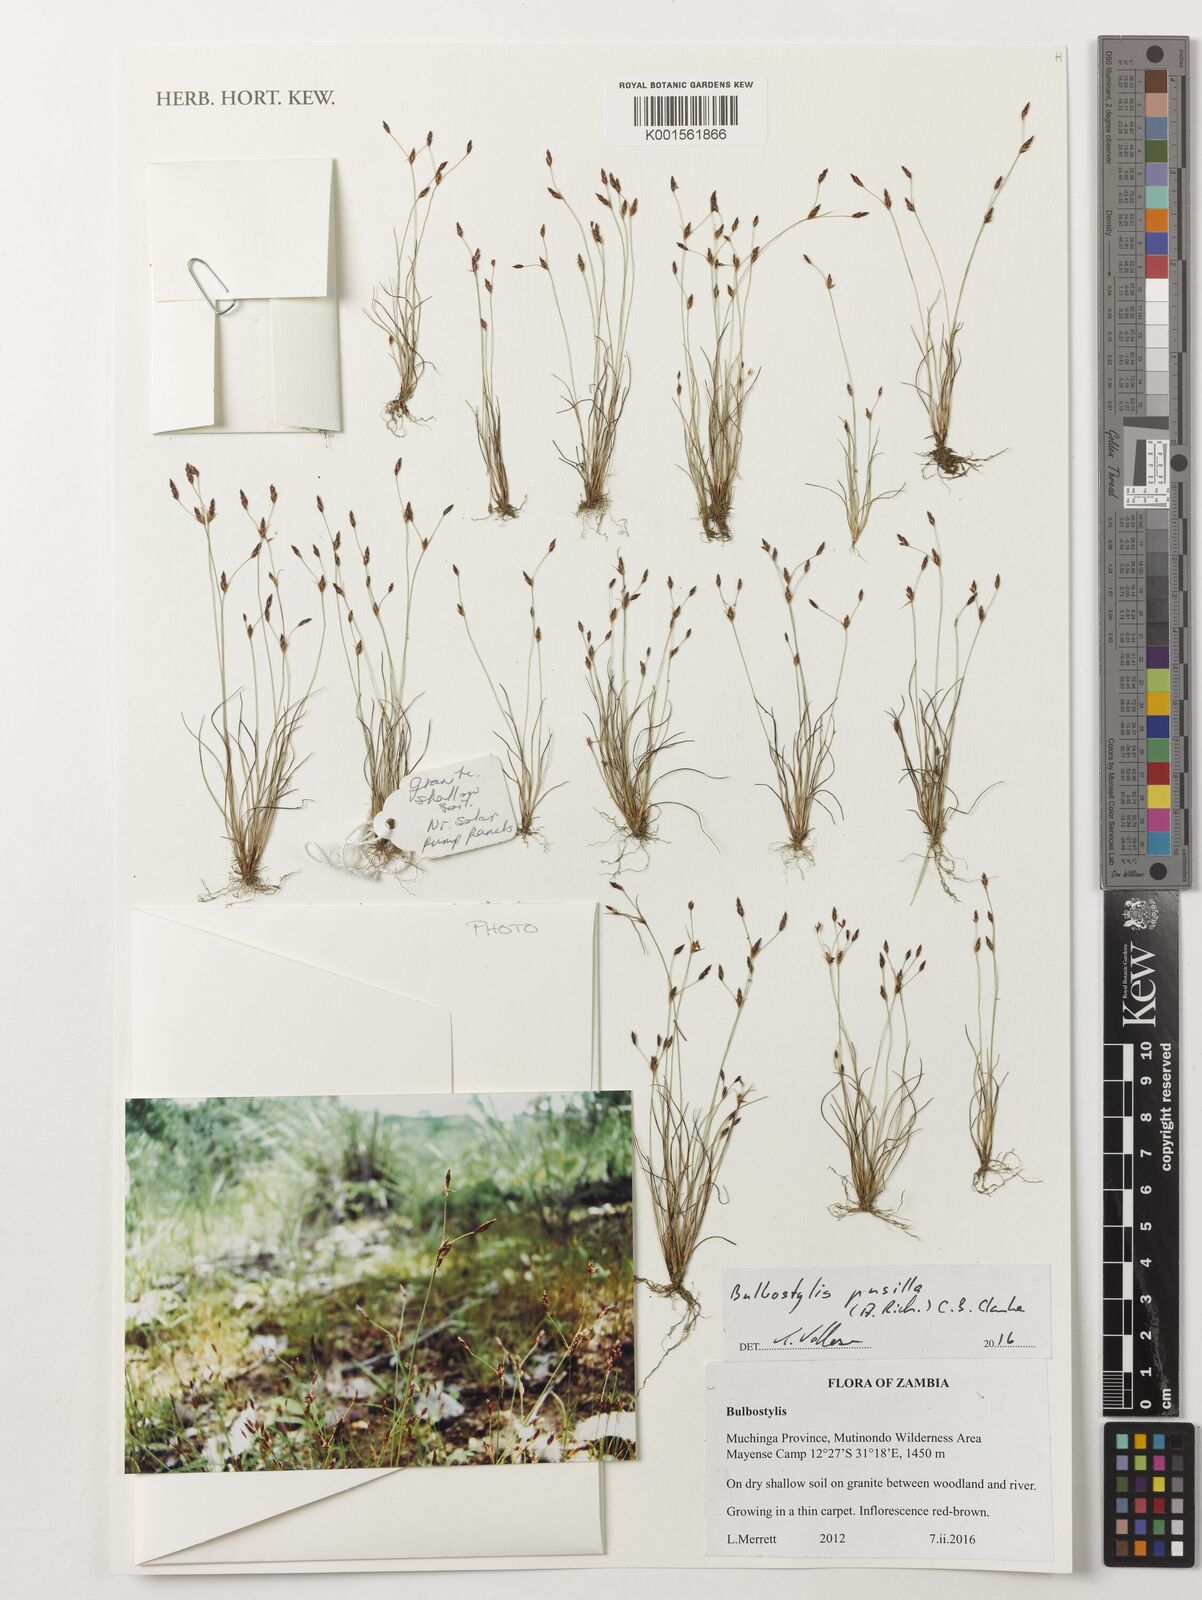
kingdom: Plantae
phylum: Tracheophyta
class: Liliopsida
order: Poales
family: Cyperaceae
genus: Bulbostylis
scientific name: Bulbostylis pusilla
